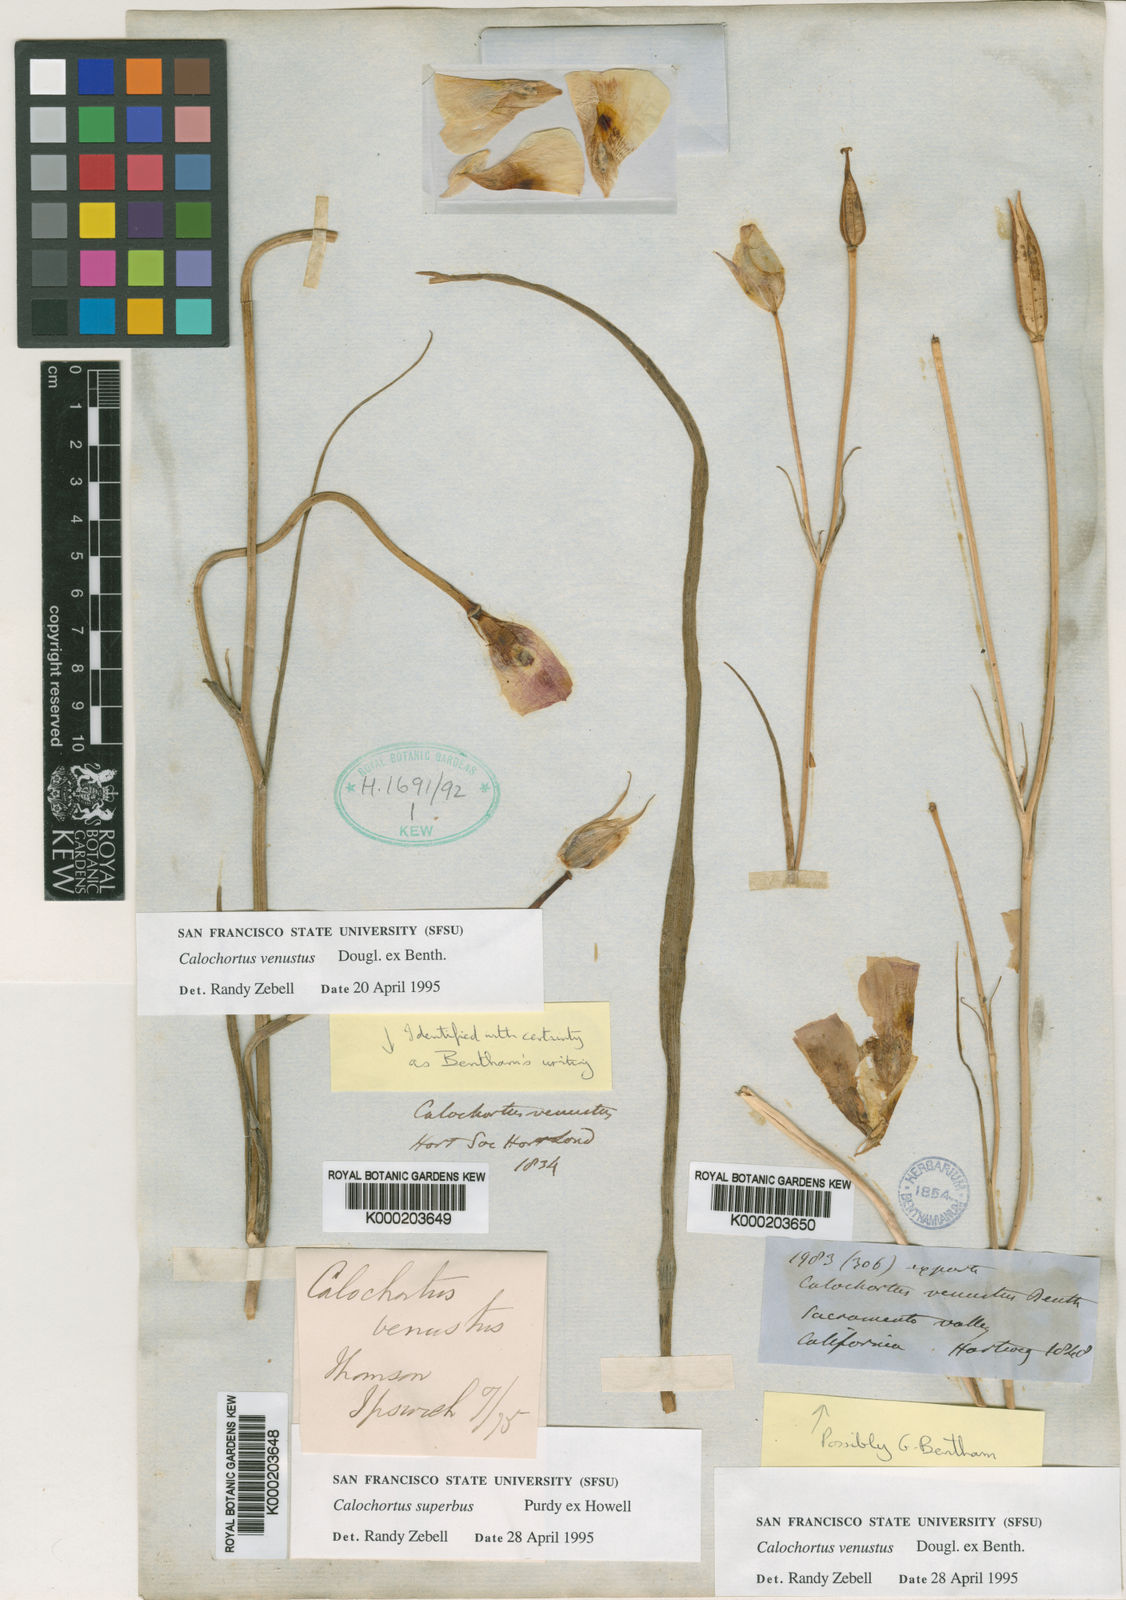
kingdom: Plantae
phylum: Tracheophyta
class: Liliopsida
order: Liliales
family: Liliaceae
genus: Calochortus
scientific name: Calochortus venustus
